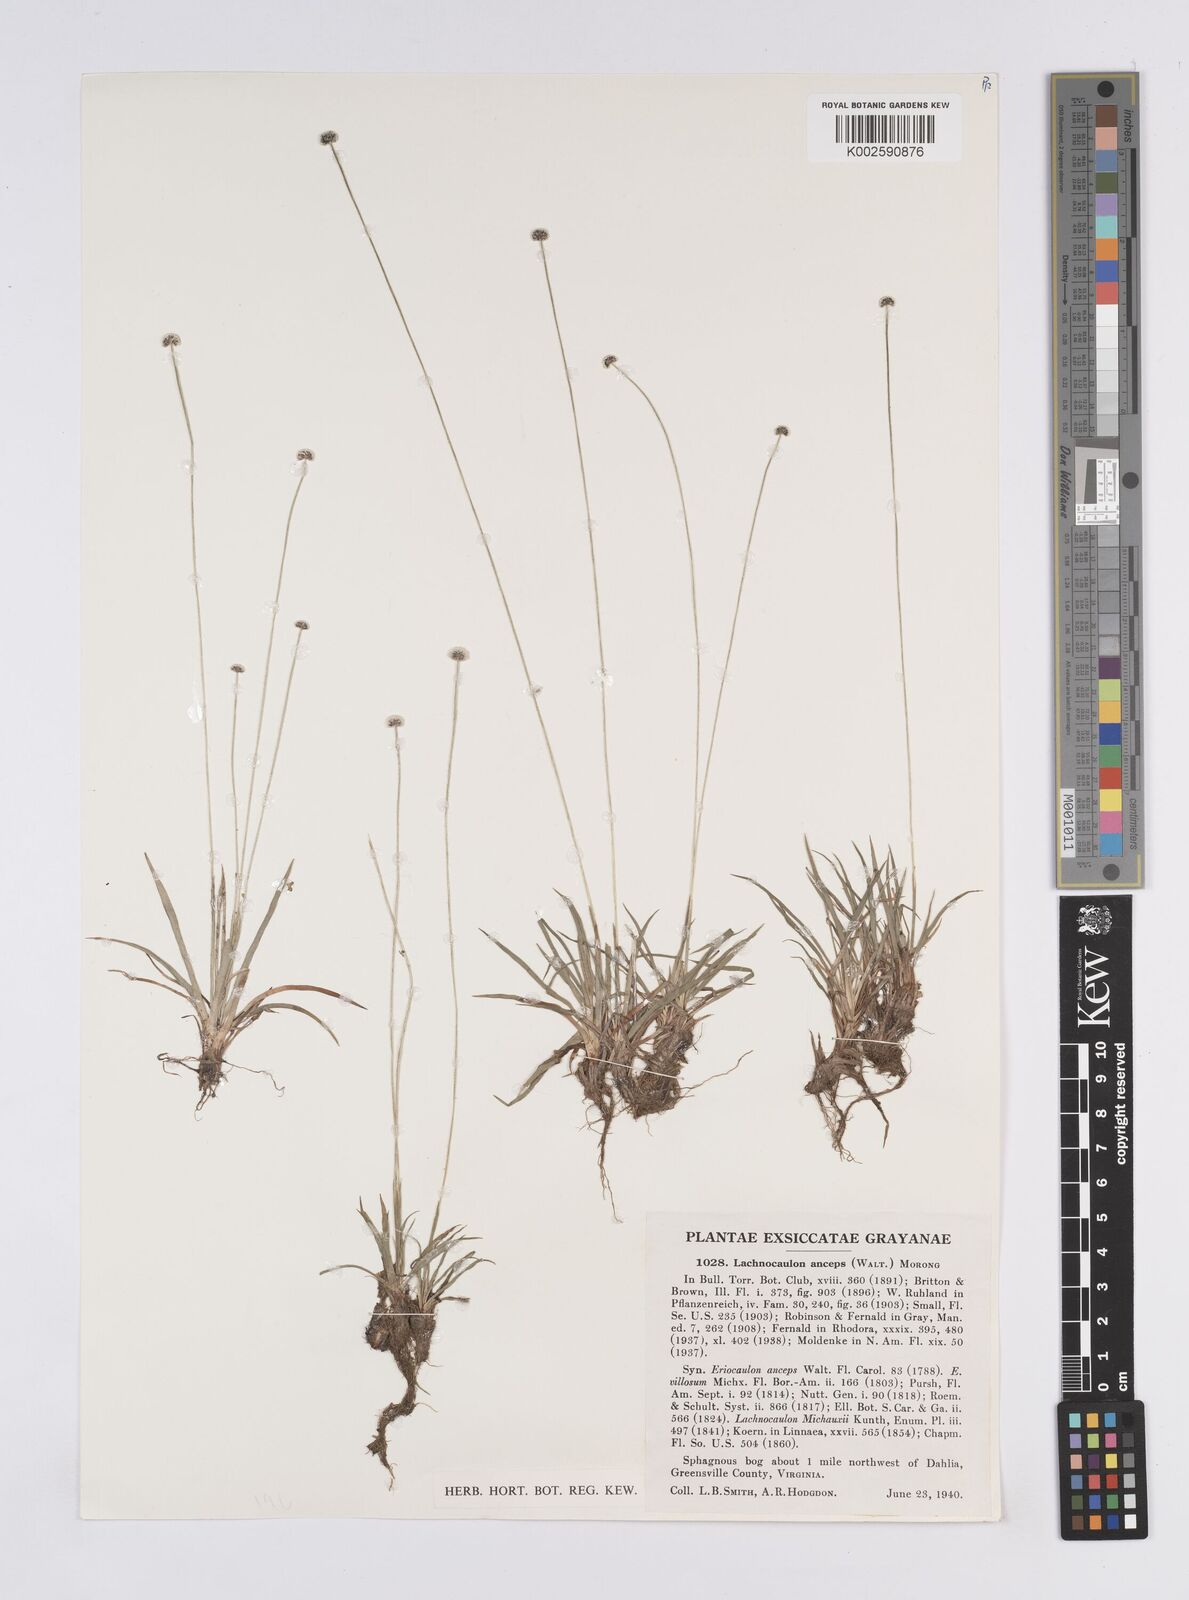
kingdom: Plantae
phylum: Tracheophyta
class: Liliopsida
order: Poales
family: Eriocaulaceae
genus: Paepalanthus
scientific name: Paepalanthus anceps
